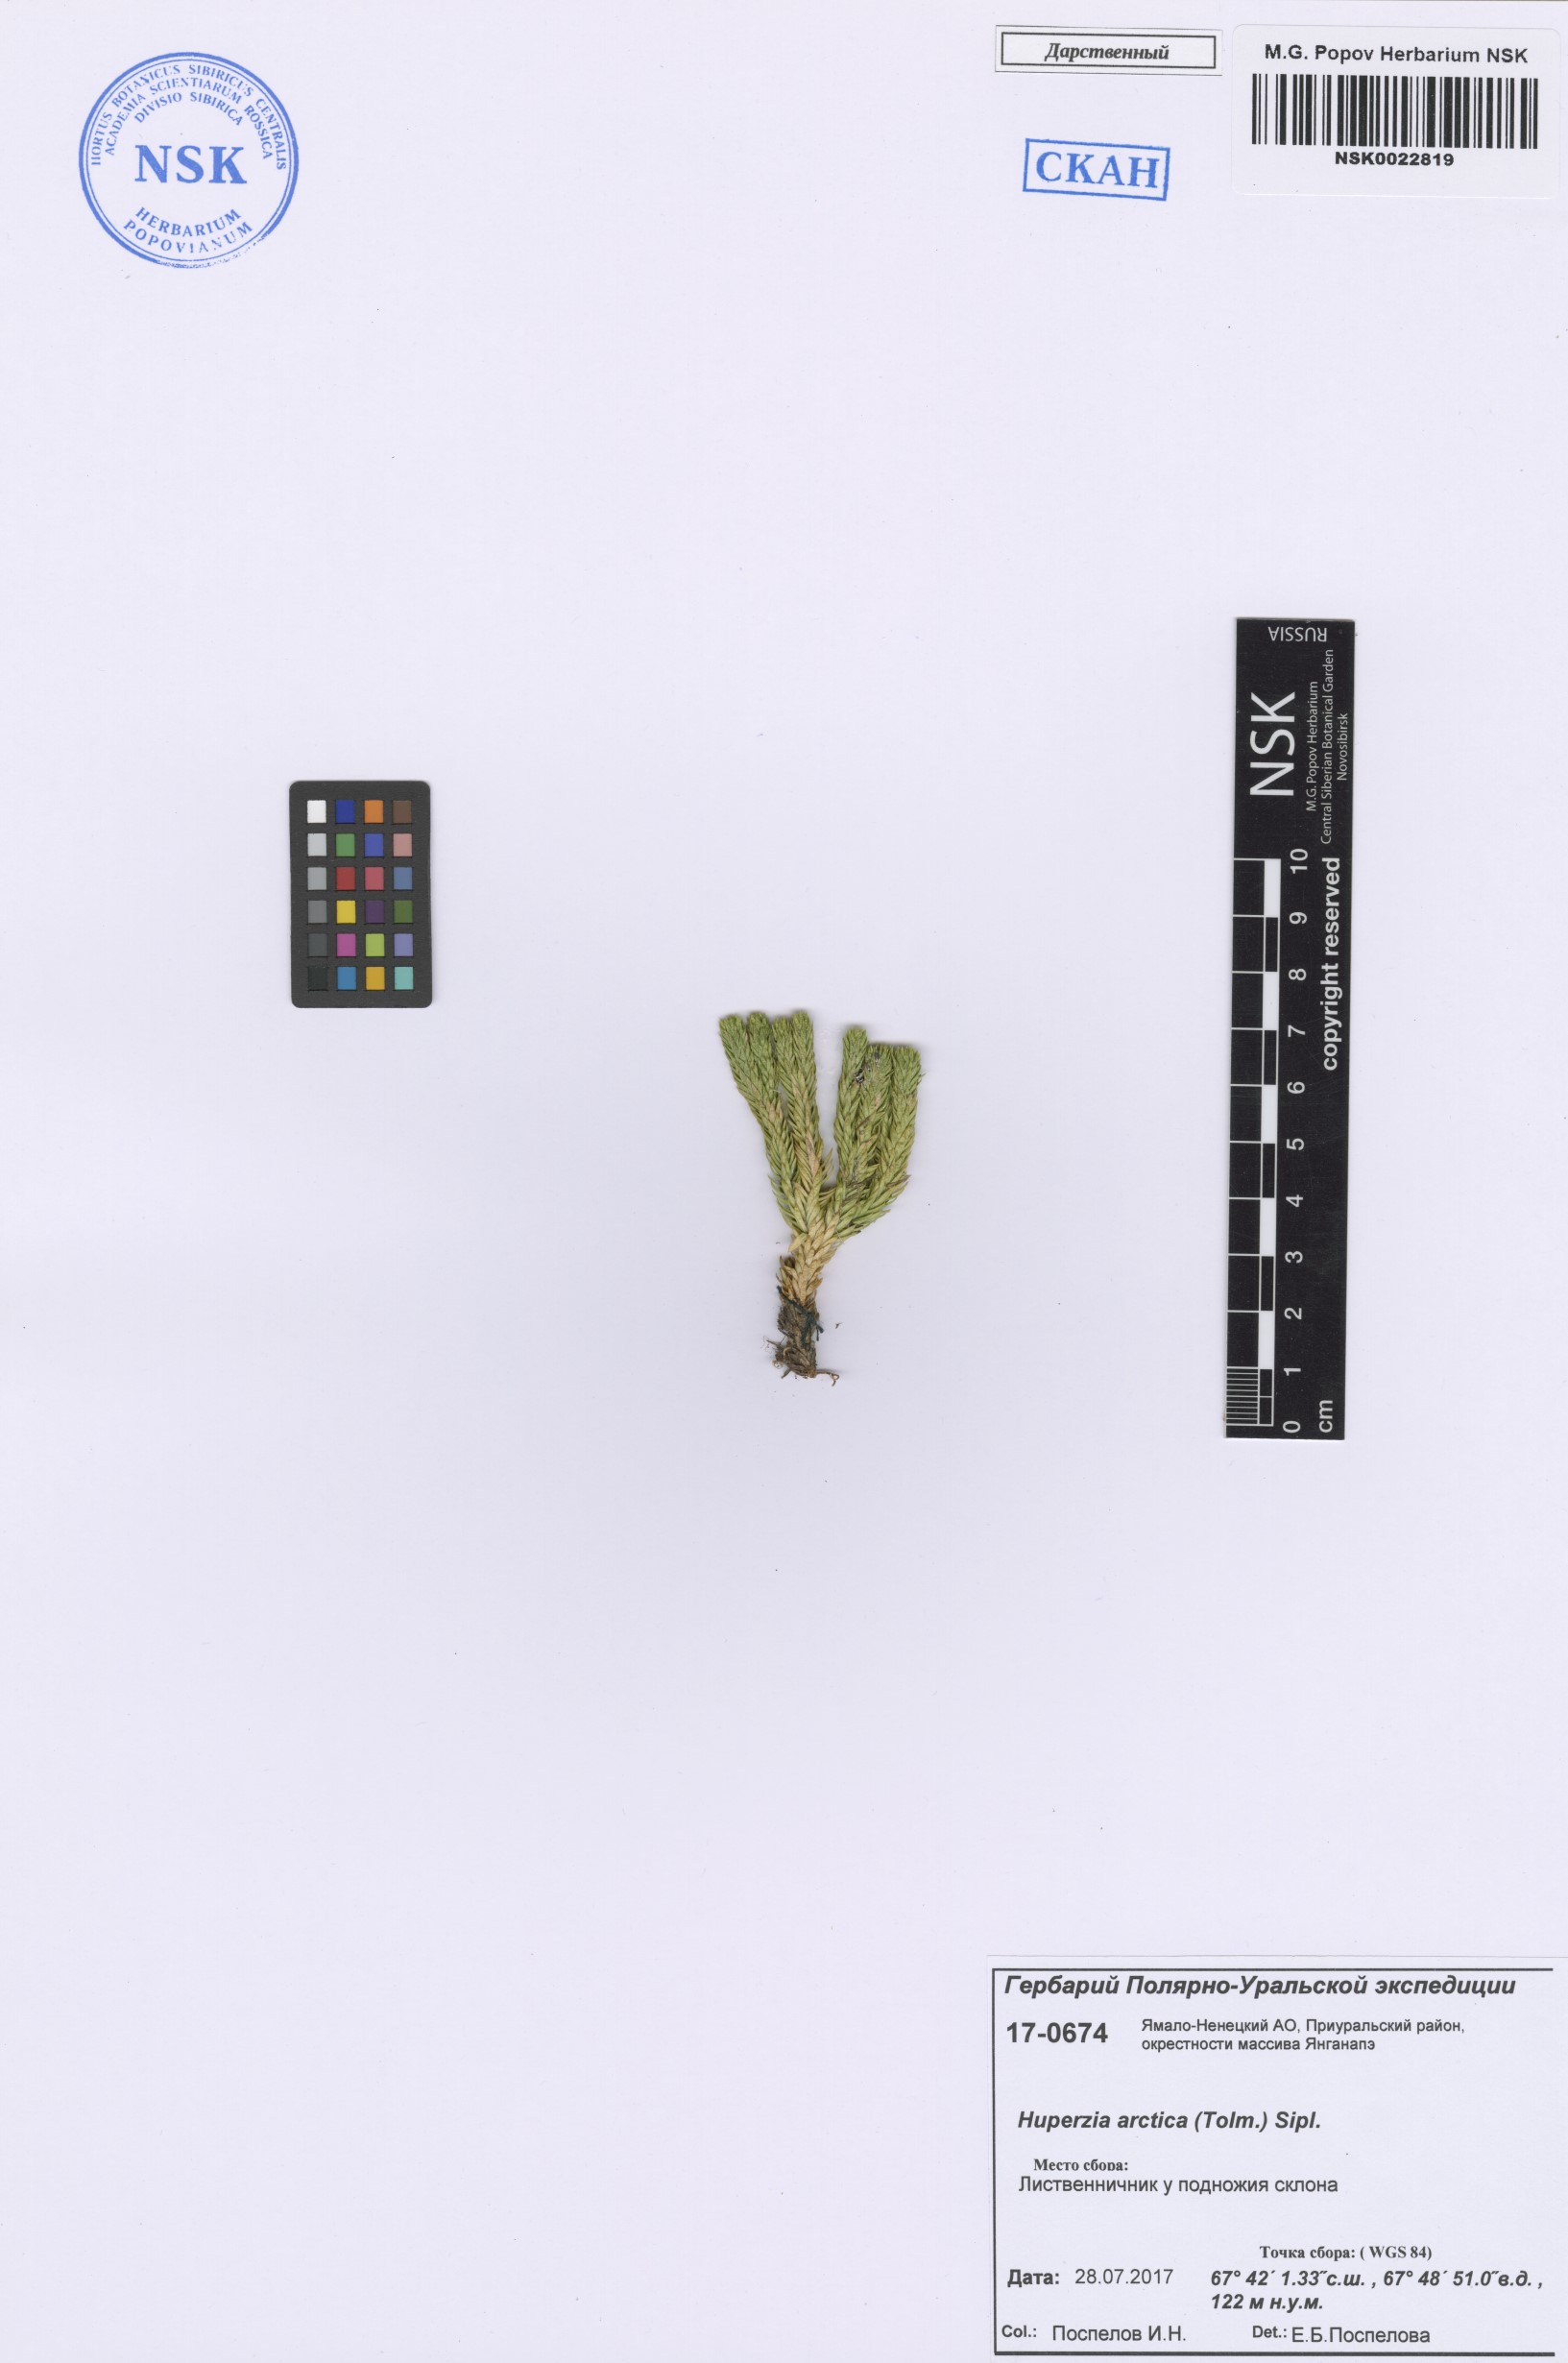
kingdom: Plantae
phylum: Tracheophyta
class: Lycopodiopsida
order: Lycopodiales
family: Lycopodiaceae
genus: Huperzia
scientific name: Huperzia selago
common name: Northern firmoss
